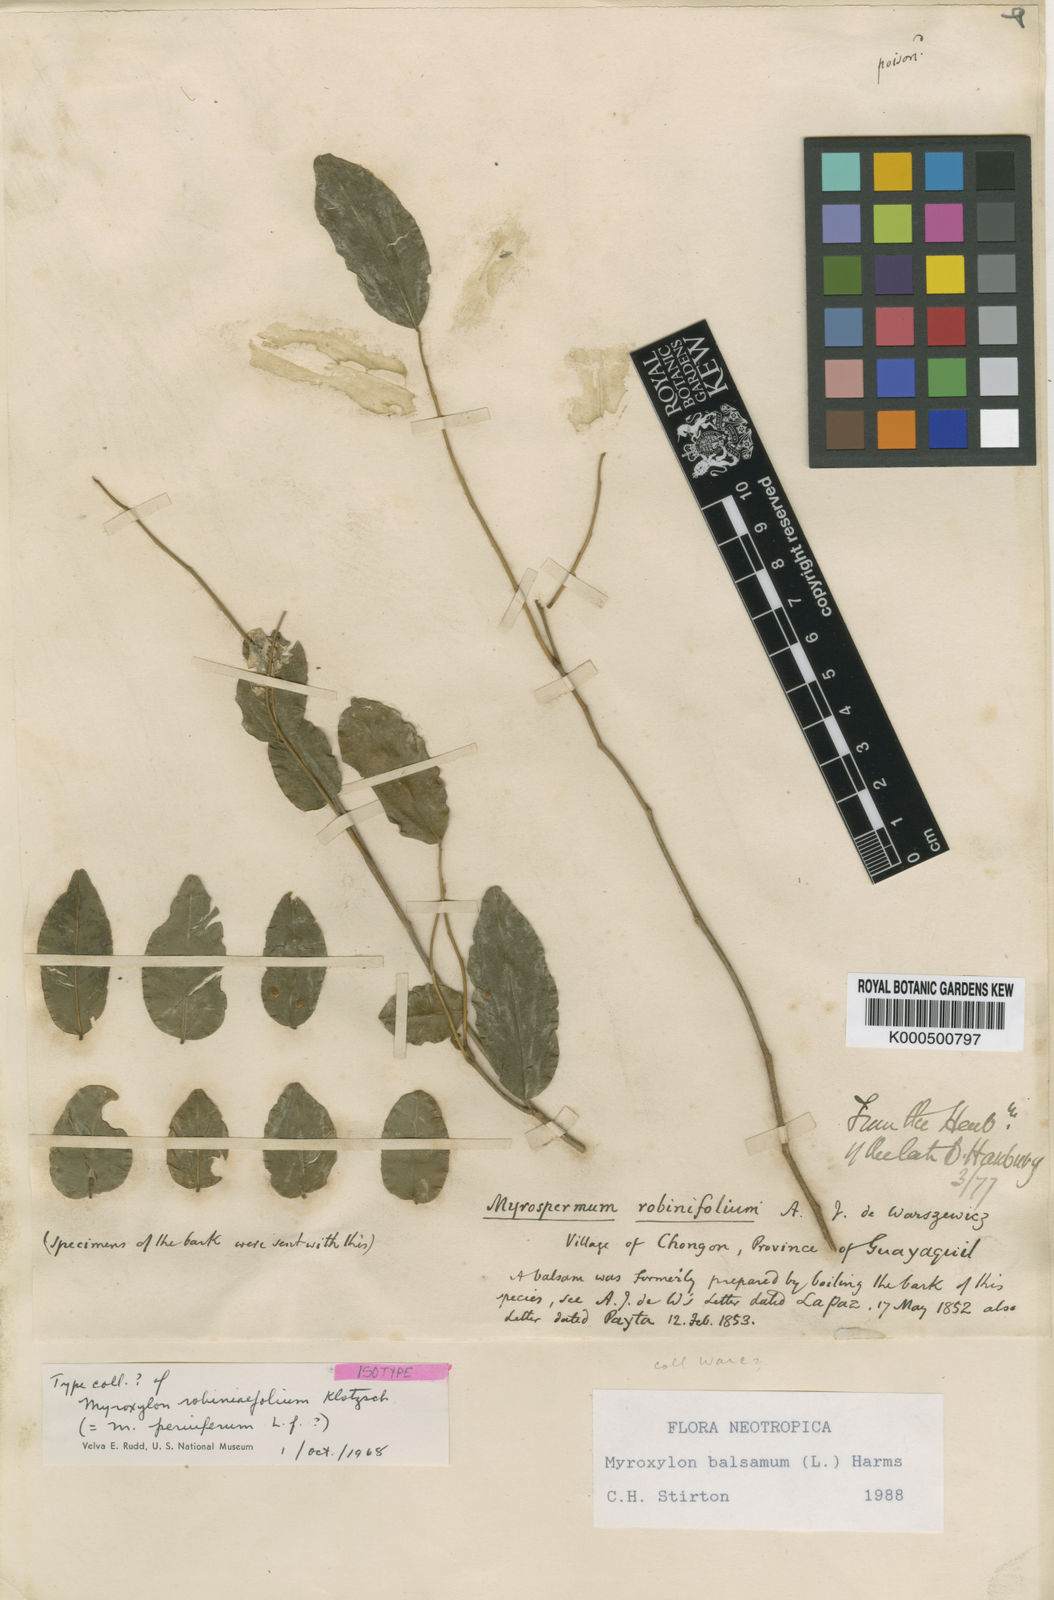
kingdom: Plantae
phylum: Tracheophyta
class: Magnoliopsida
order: Fabales
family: Fabaceae
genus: Myroxylon
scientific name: Myroxylon balsamum
